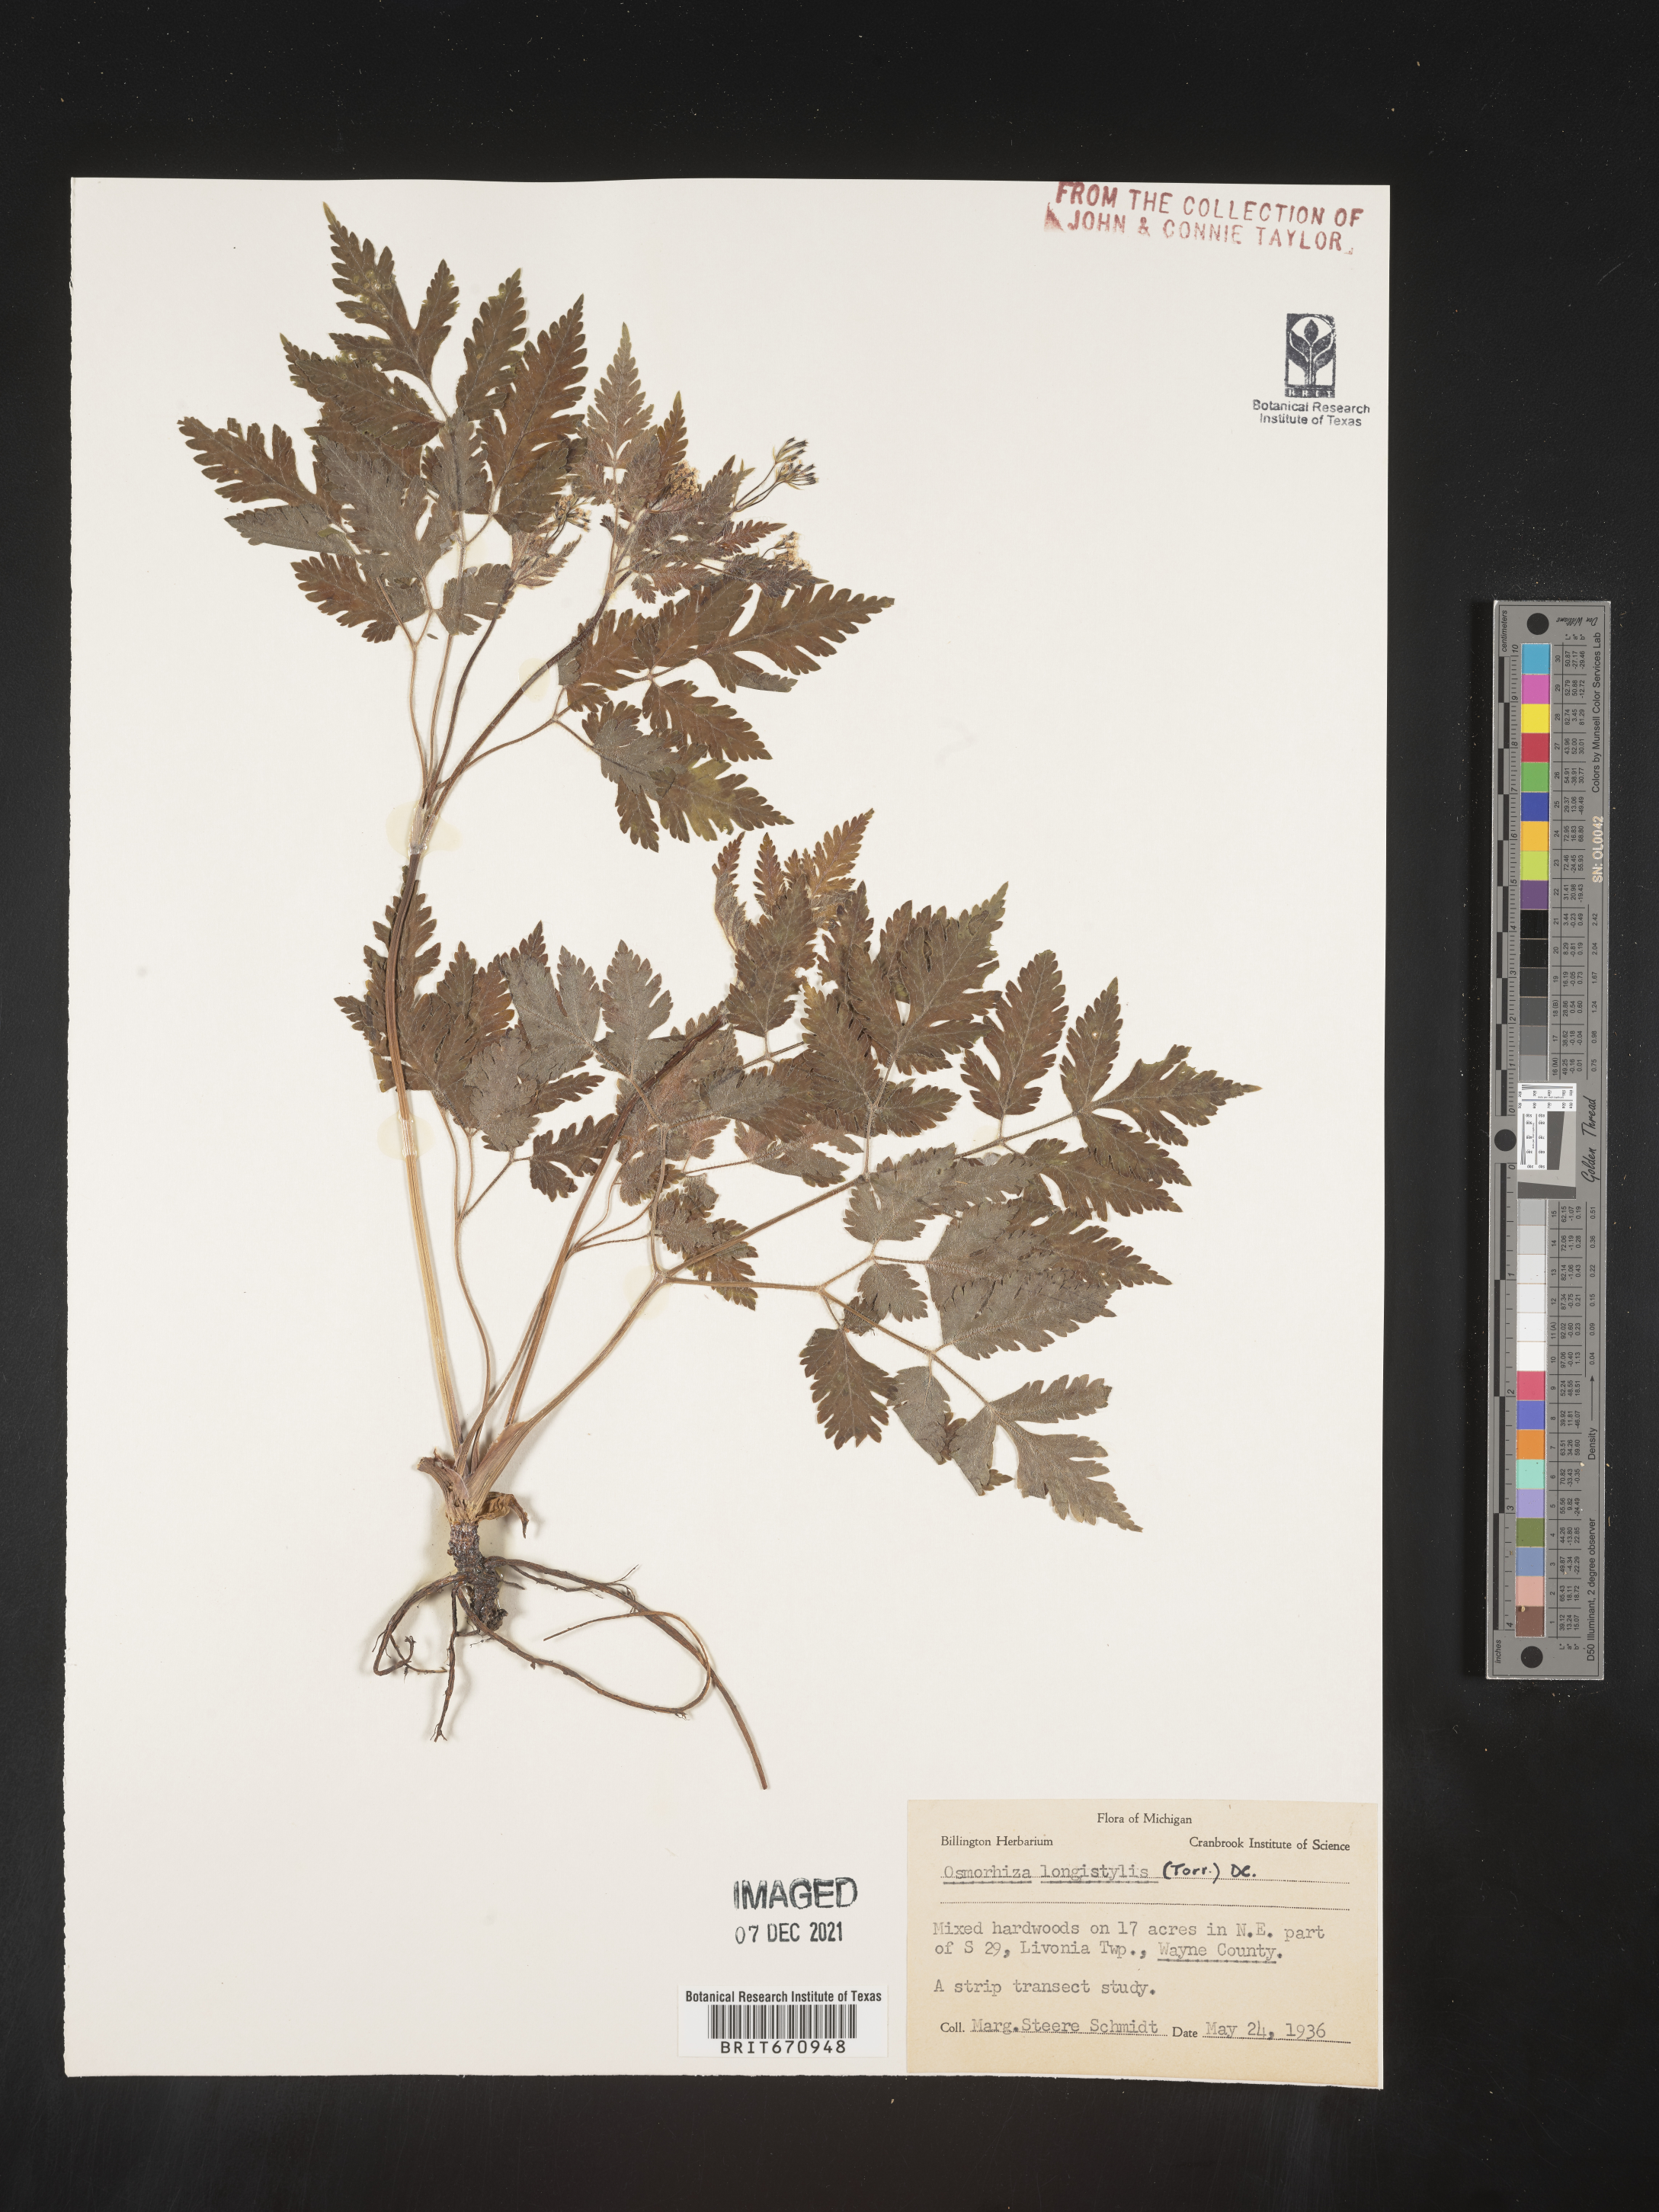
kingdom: Plantae
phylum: Tracheophyta
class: Magnoliopsida
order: Apiales
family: Apiaceae
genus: Osmorhiza
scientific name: Osmorhiza longistylis
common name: Smooth sweet cicely
